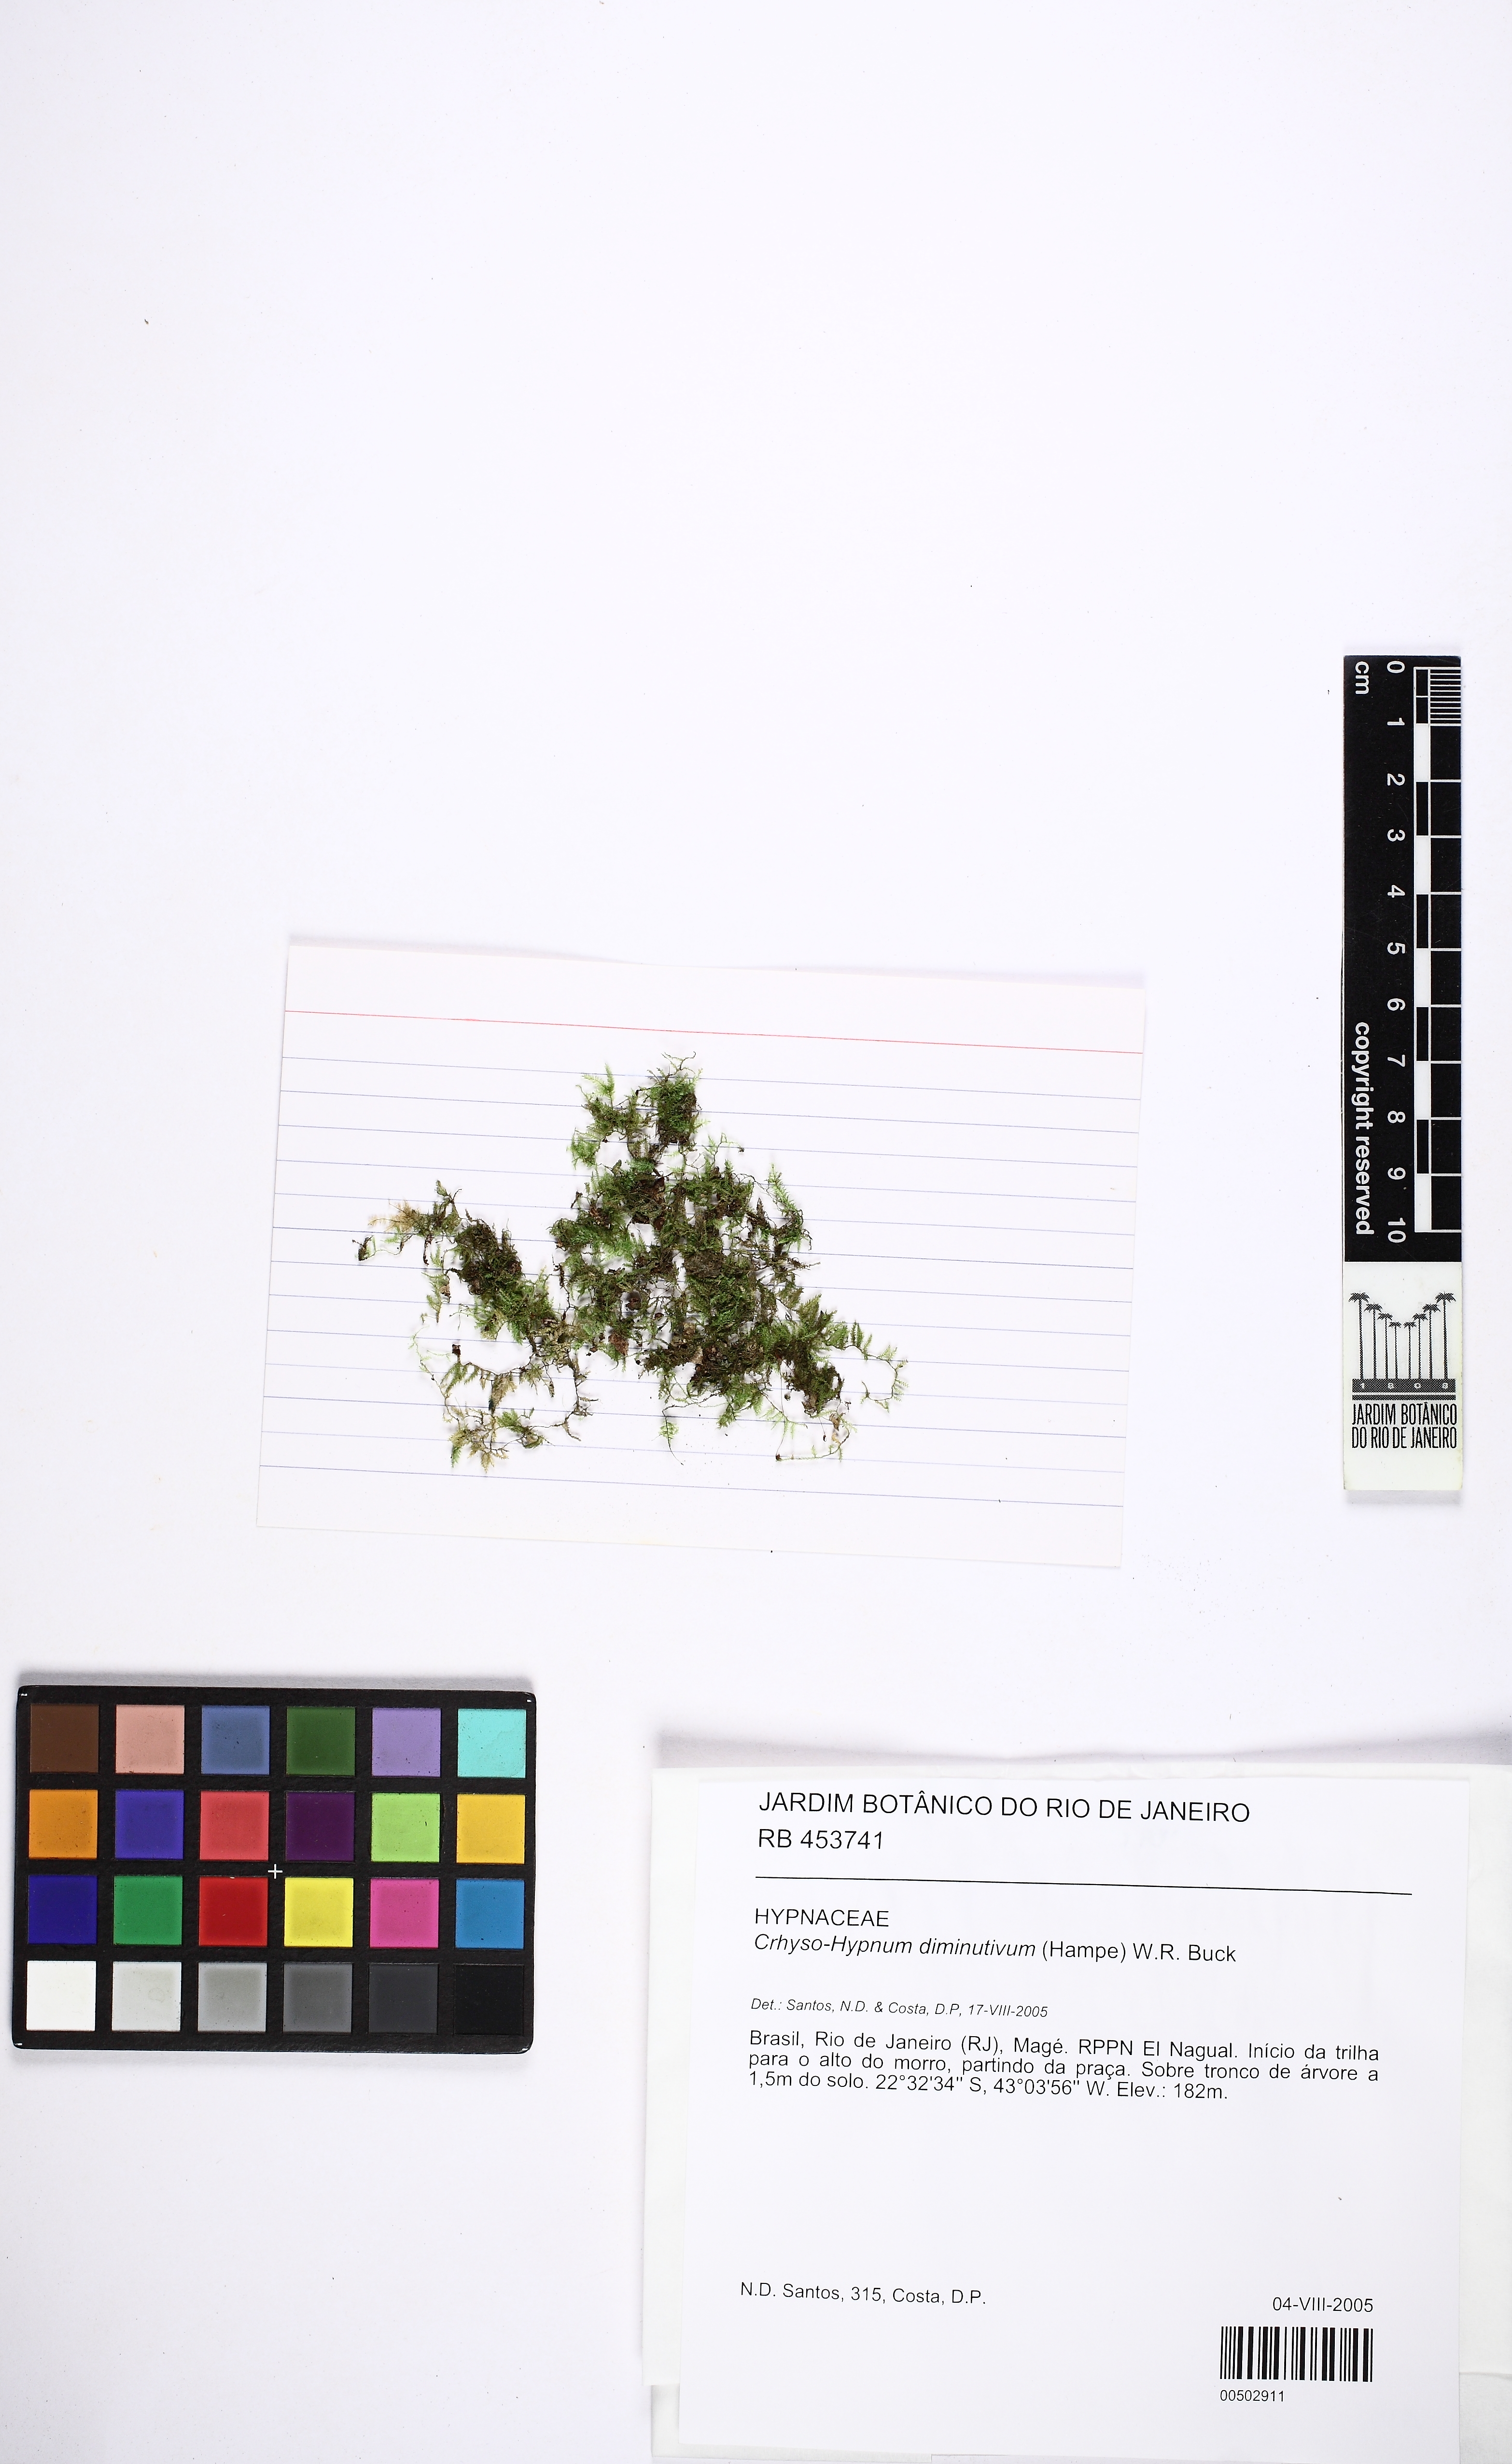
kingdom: Plantae
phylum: Bryophyta
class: Bryopsida
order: Hypnales
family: Hypnaceae
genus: Chryso-hypnum
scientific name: Chryso-hypnum diminutivum
